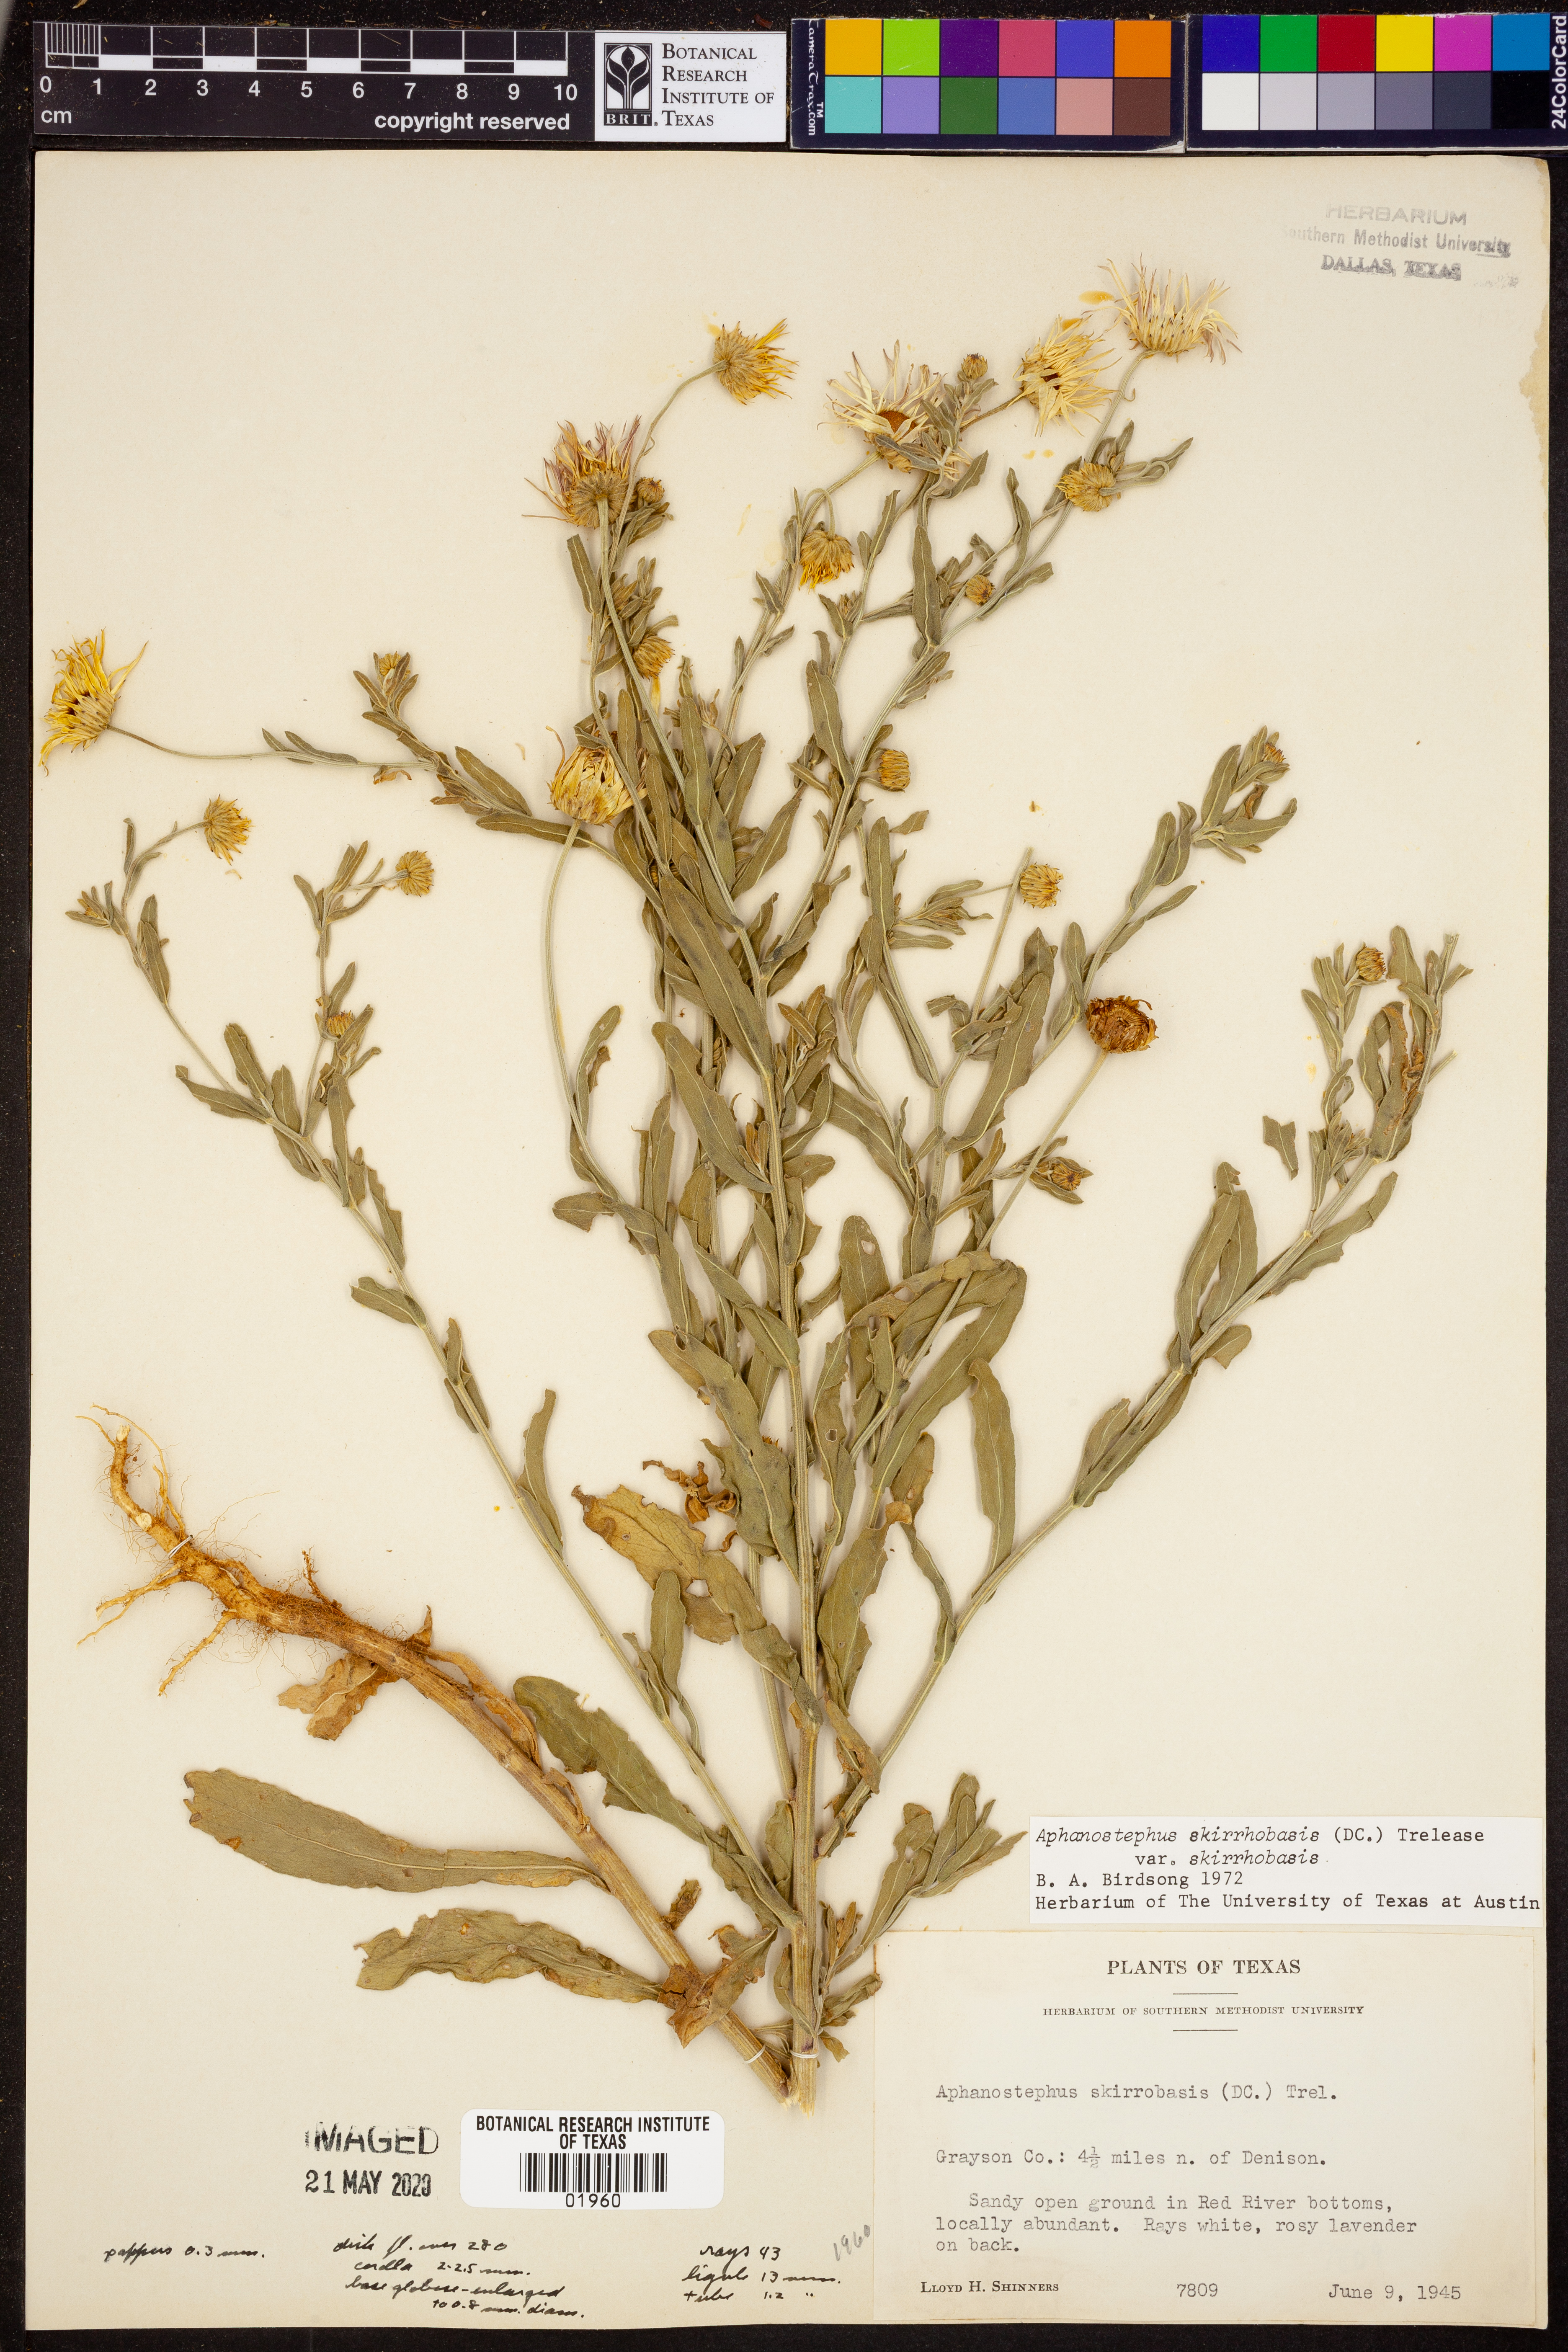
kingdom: Plantae
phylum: Tracheophyta
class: Magnoliopsida
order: Asterales
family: Asteraceae
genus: Aphanostephus
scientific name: Aphanostephus skirrhobasis
